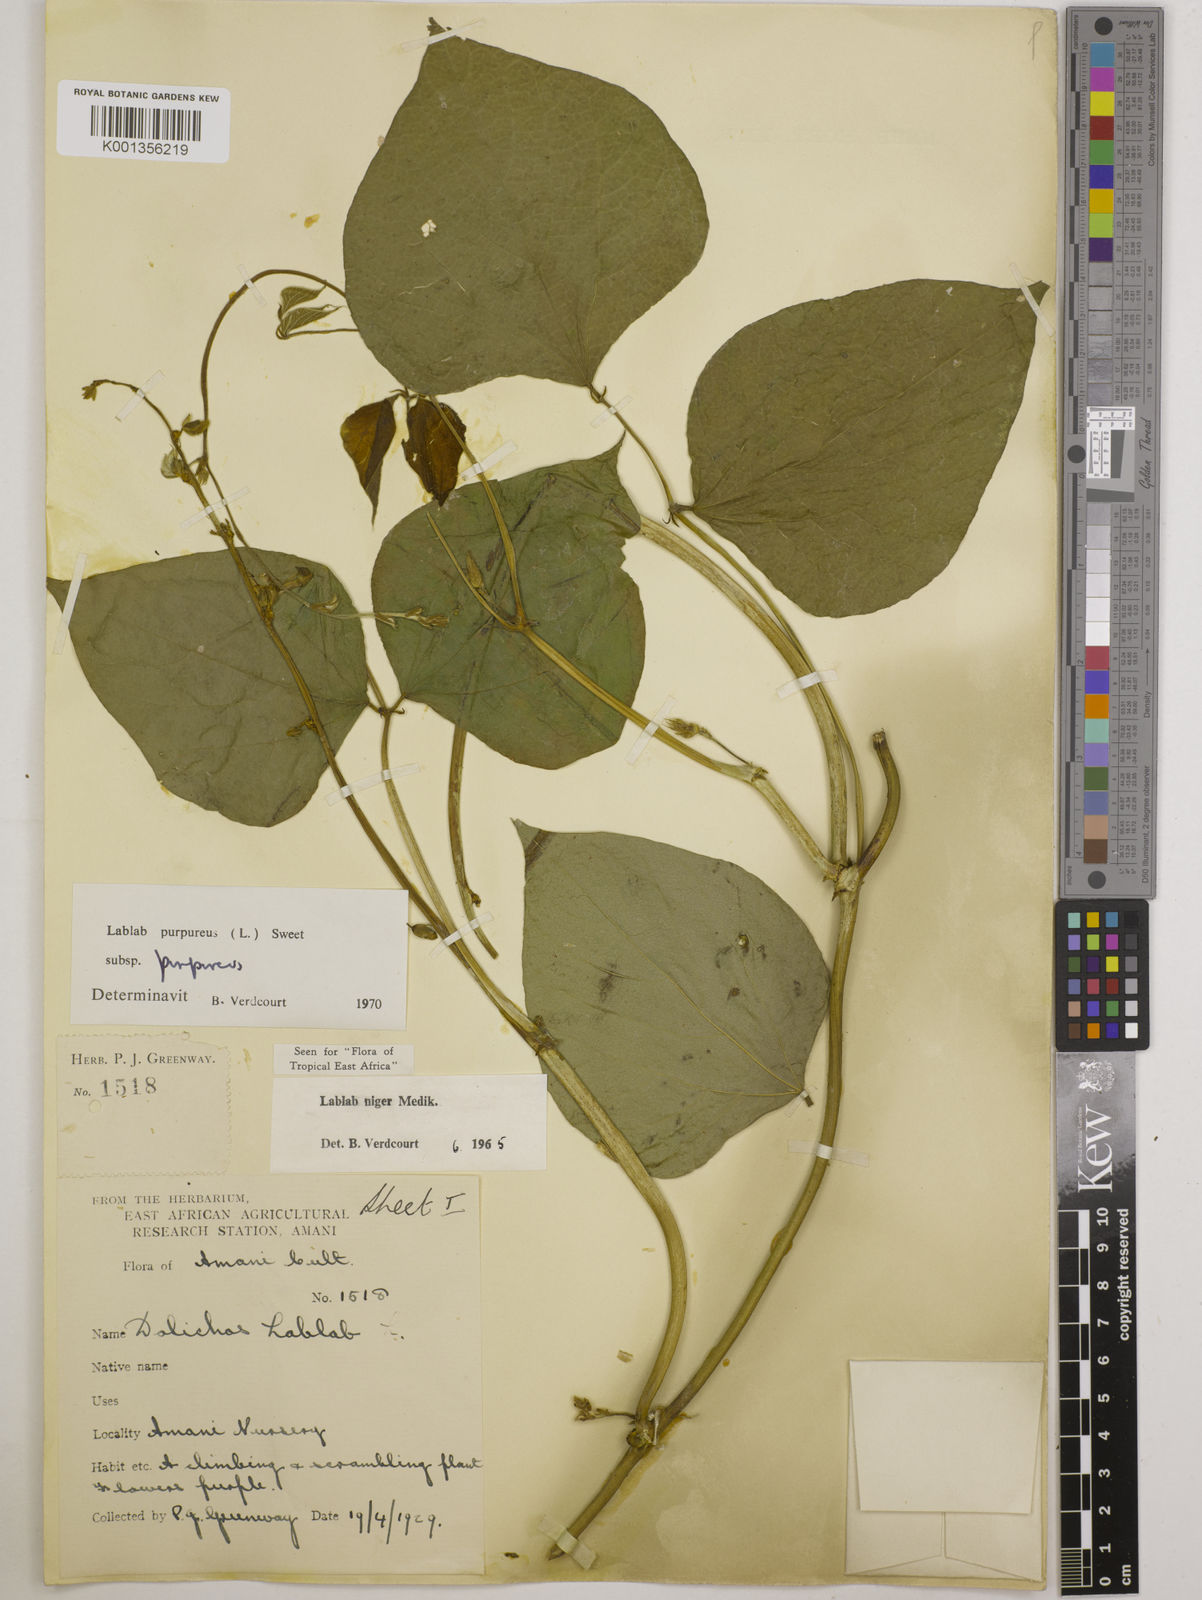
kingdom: Plantae
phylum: Tracheophyta
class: Magnoliopsida
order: Fabales
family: Fabaceae
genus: Lablab
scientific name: Lablab purpureus
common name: Lablab-bean
